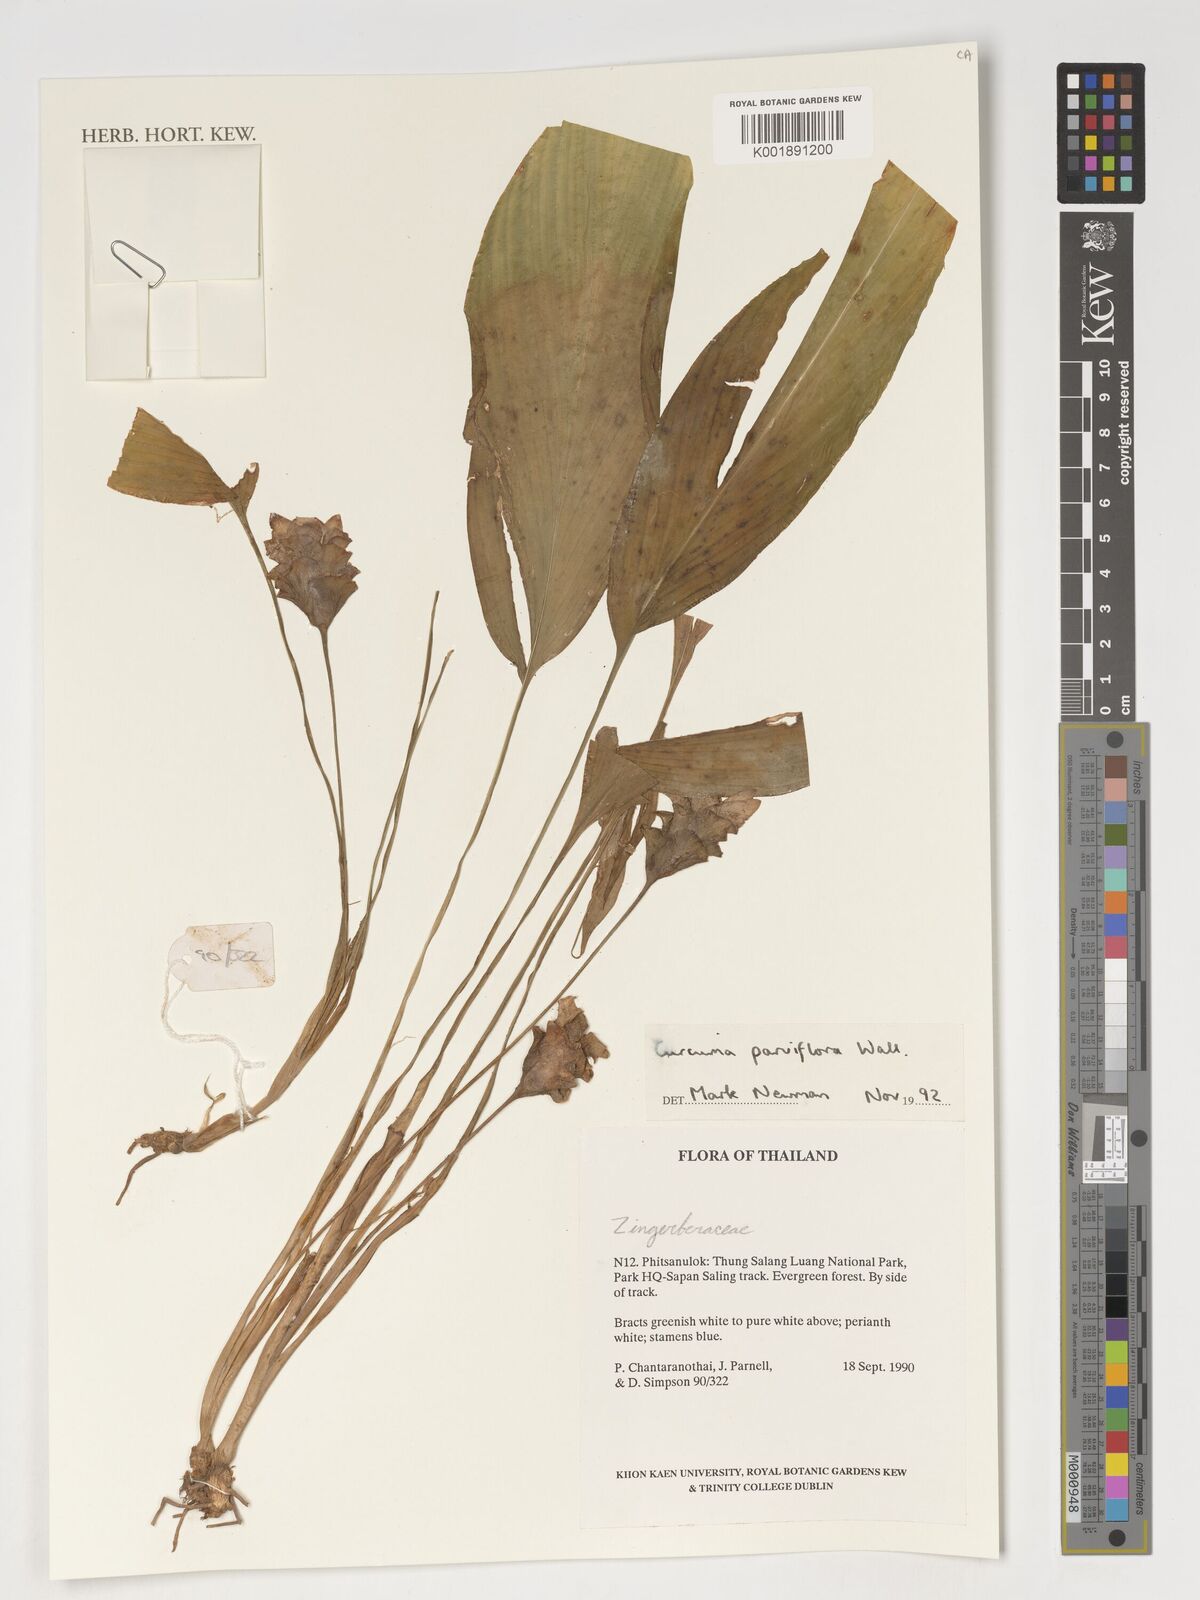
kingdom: Plantae
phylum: Tracheophyta
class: Liliopsida
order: Zingiberales
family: Zingiberaceae
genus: Curcuma
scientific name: Curcuma parviflora
